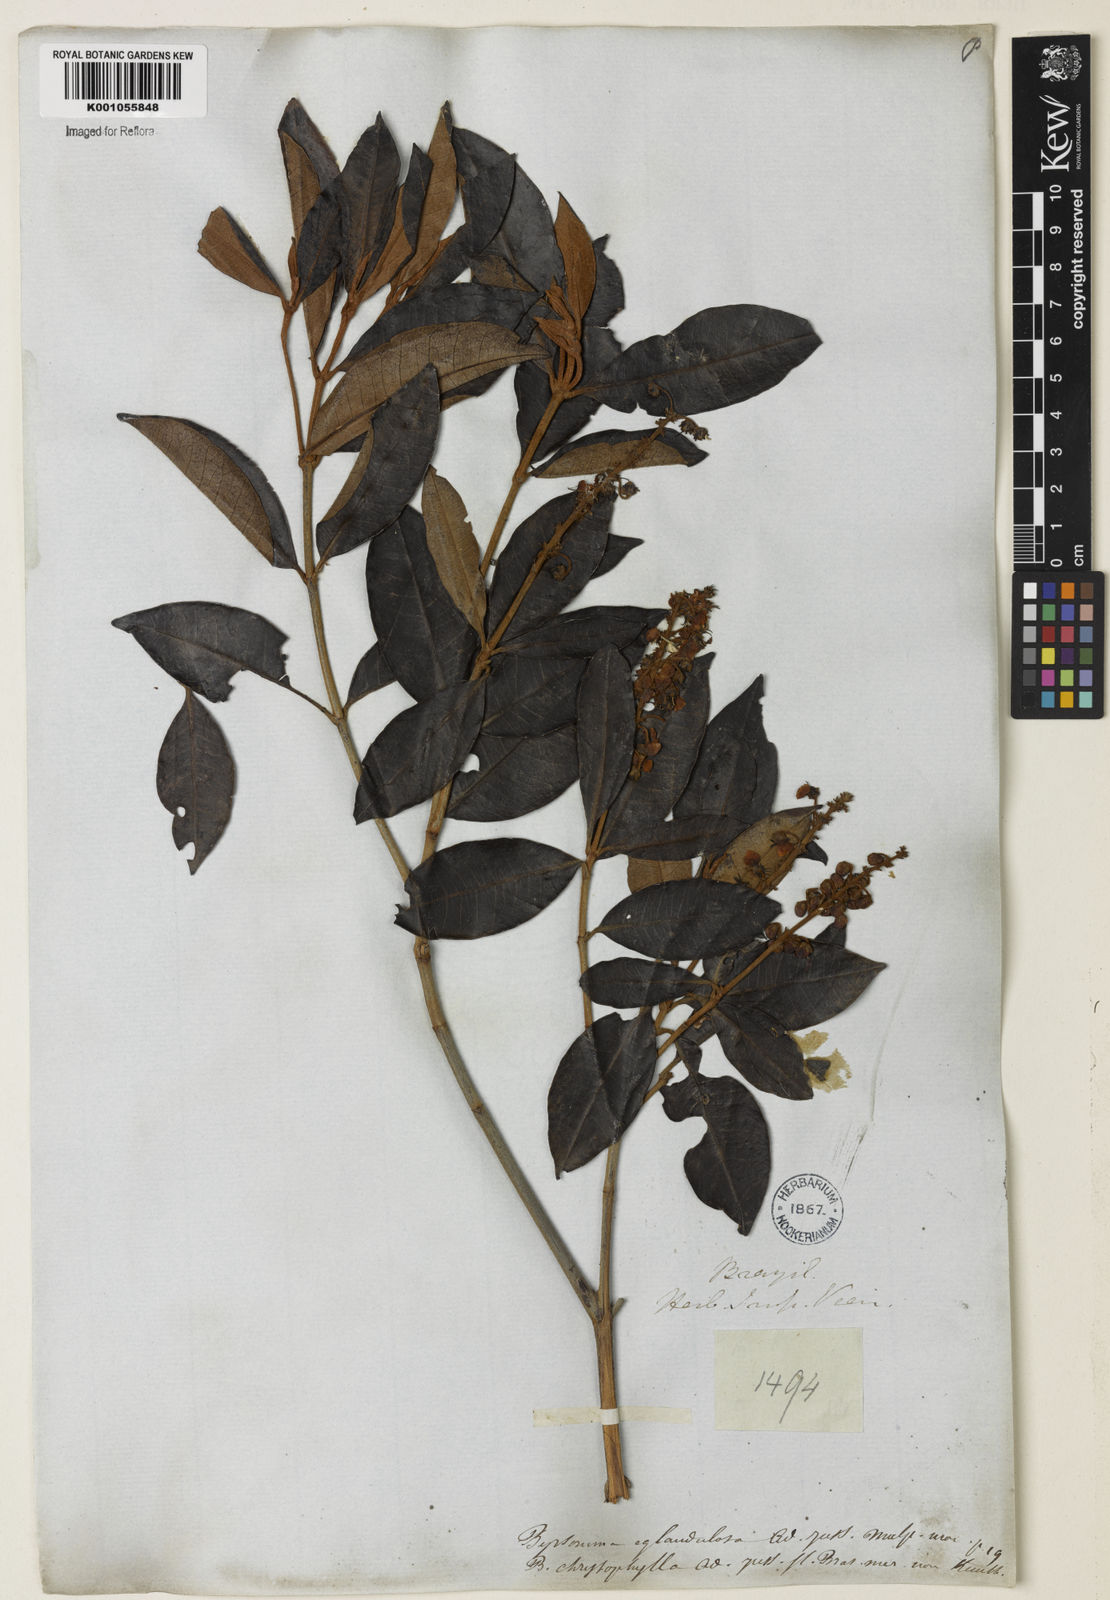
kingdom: Plantae
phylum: Tracheophyta
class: Magnoliopsida
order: Malpighiales
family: Malpighiaceae
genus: Byrsonima
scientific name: Byrsonima sericea
